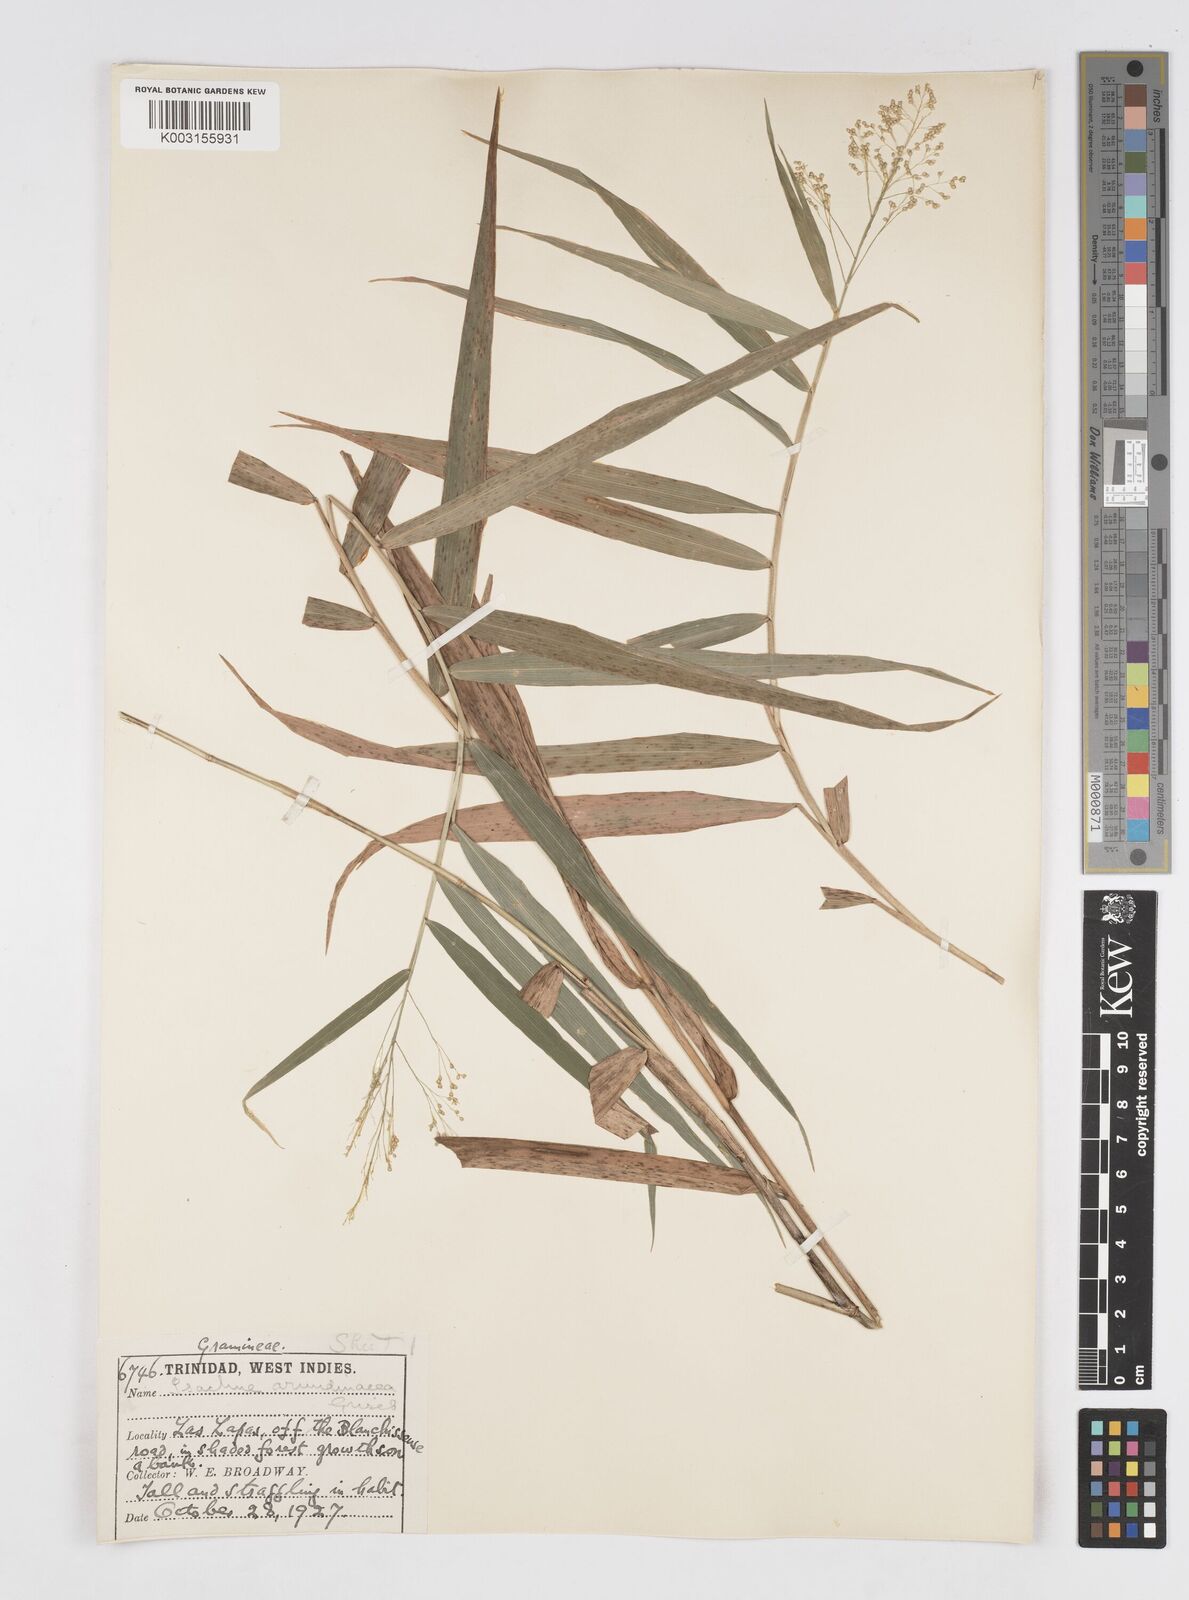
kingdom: Plantae
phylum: Tracheophyta
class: Liliopsida
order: Poales
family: Poaceae
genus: Isachne
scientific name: Isachne arundinacea
